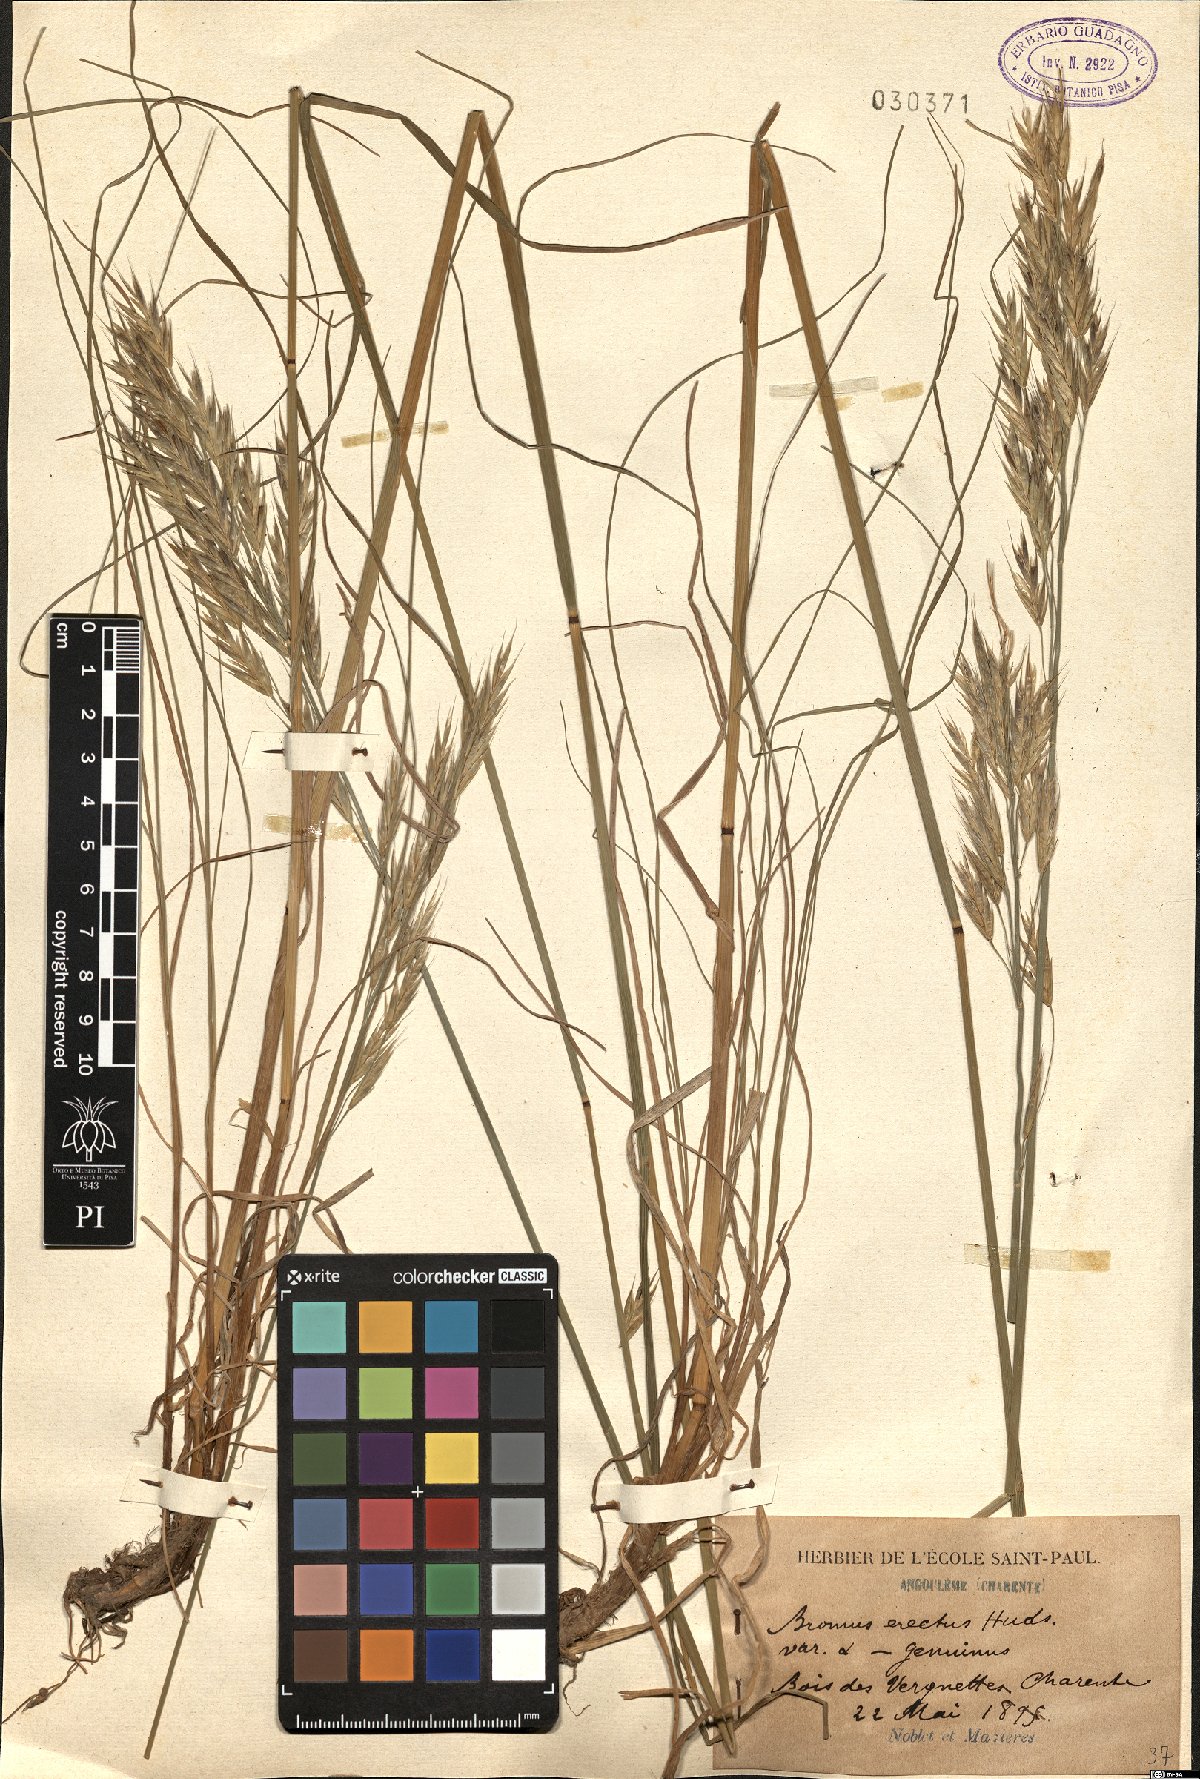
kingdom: Plantae
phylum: Tracheophyta
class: Liliopsida
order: Poales
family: Poaceae
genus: Bromus
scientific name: Bromus erectus
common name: Erect brome
